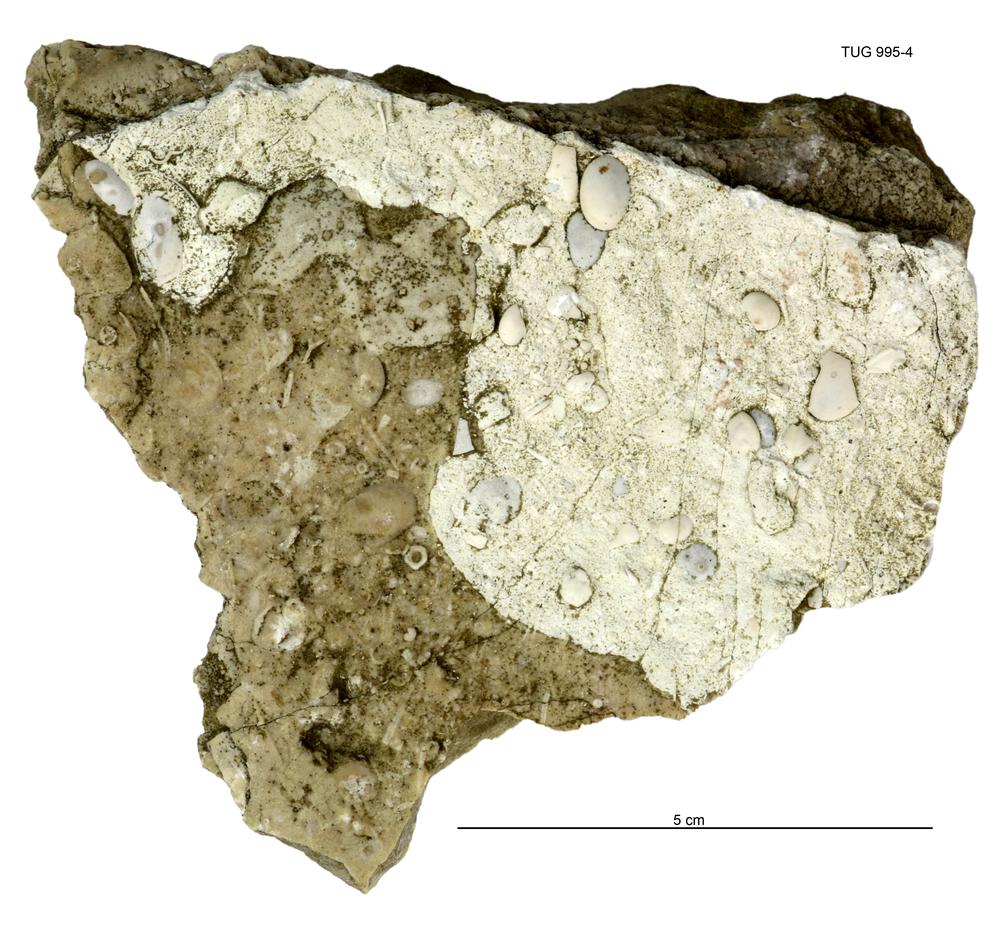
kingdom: Animalia
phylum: Brachiopoda
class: Rhynchonellata
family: Meristellidae
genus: Hindella
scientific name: Hindella
